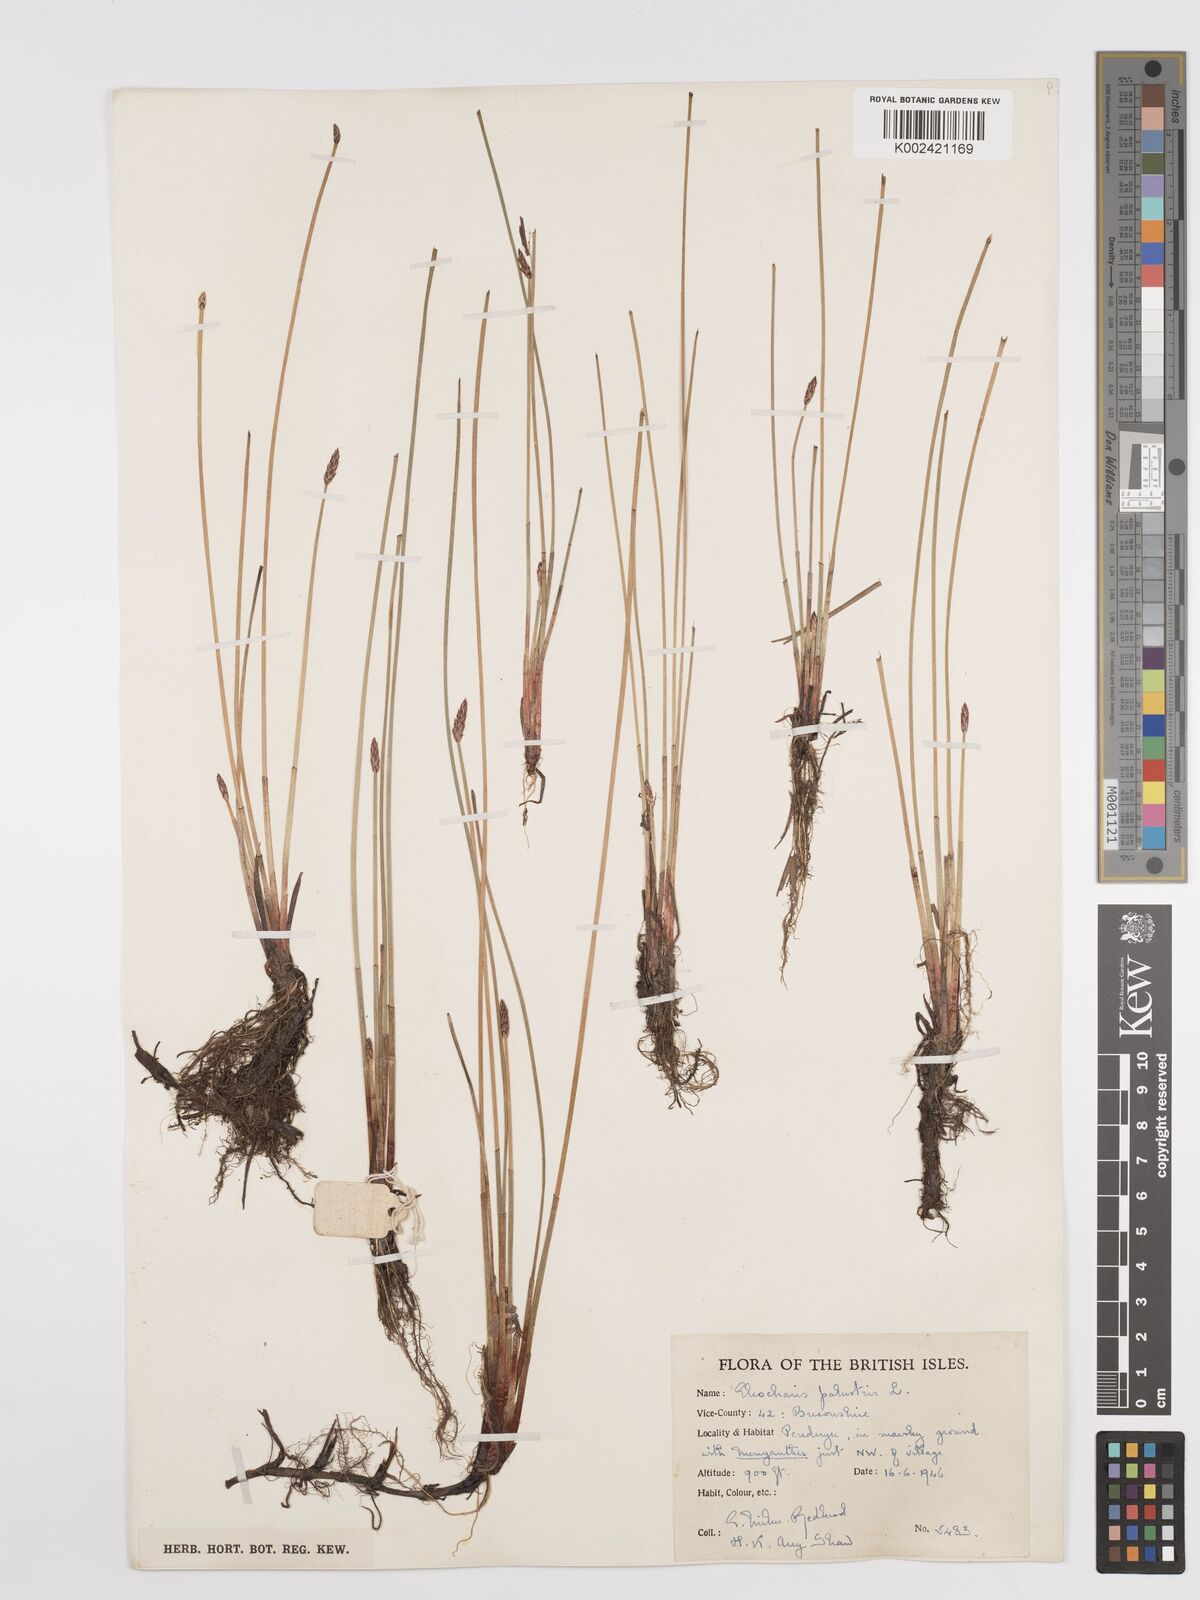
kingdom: Plantae
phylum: Tracheophyta
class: Liliopsida
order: Poales
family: Cyperaceae
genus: Eleocharis
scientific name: Eleocharis palustris
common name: Common spike-rush
